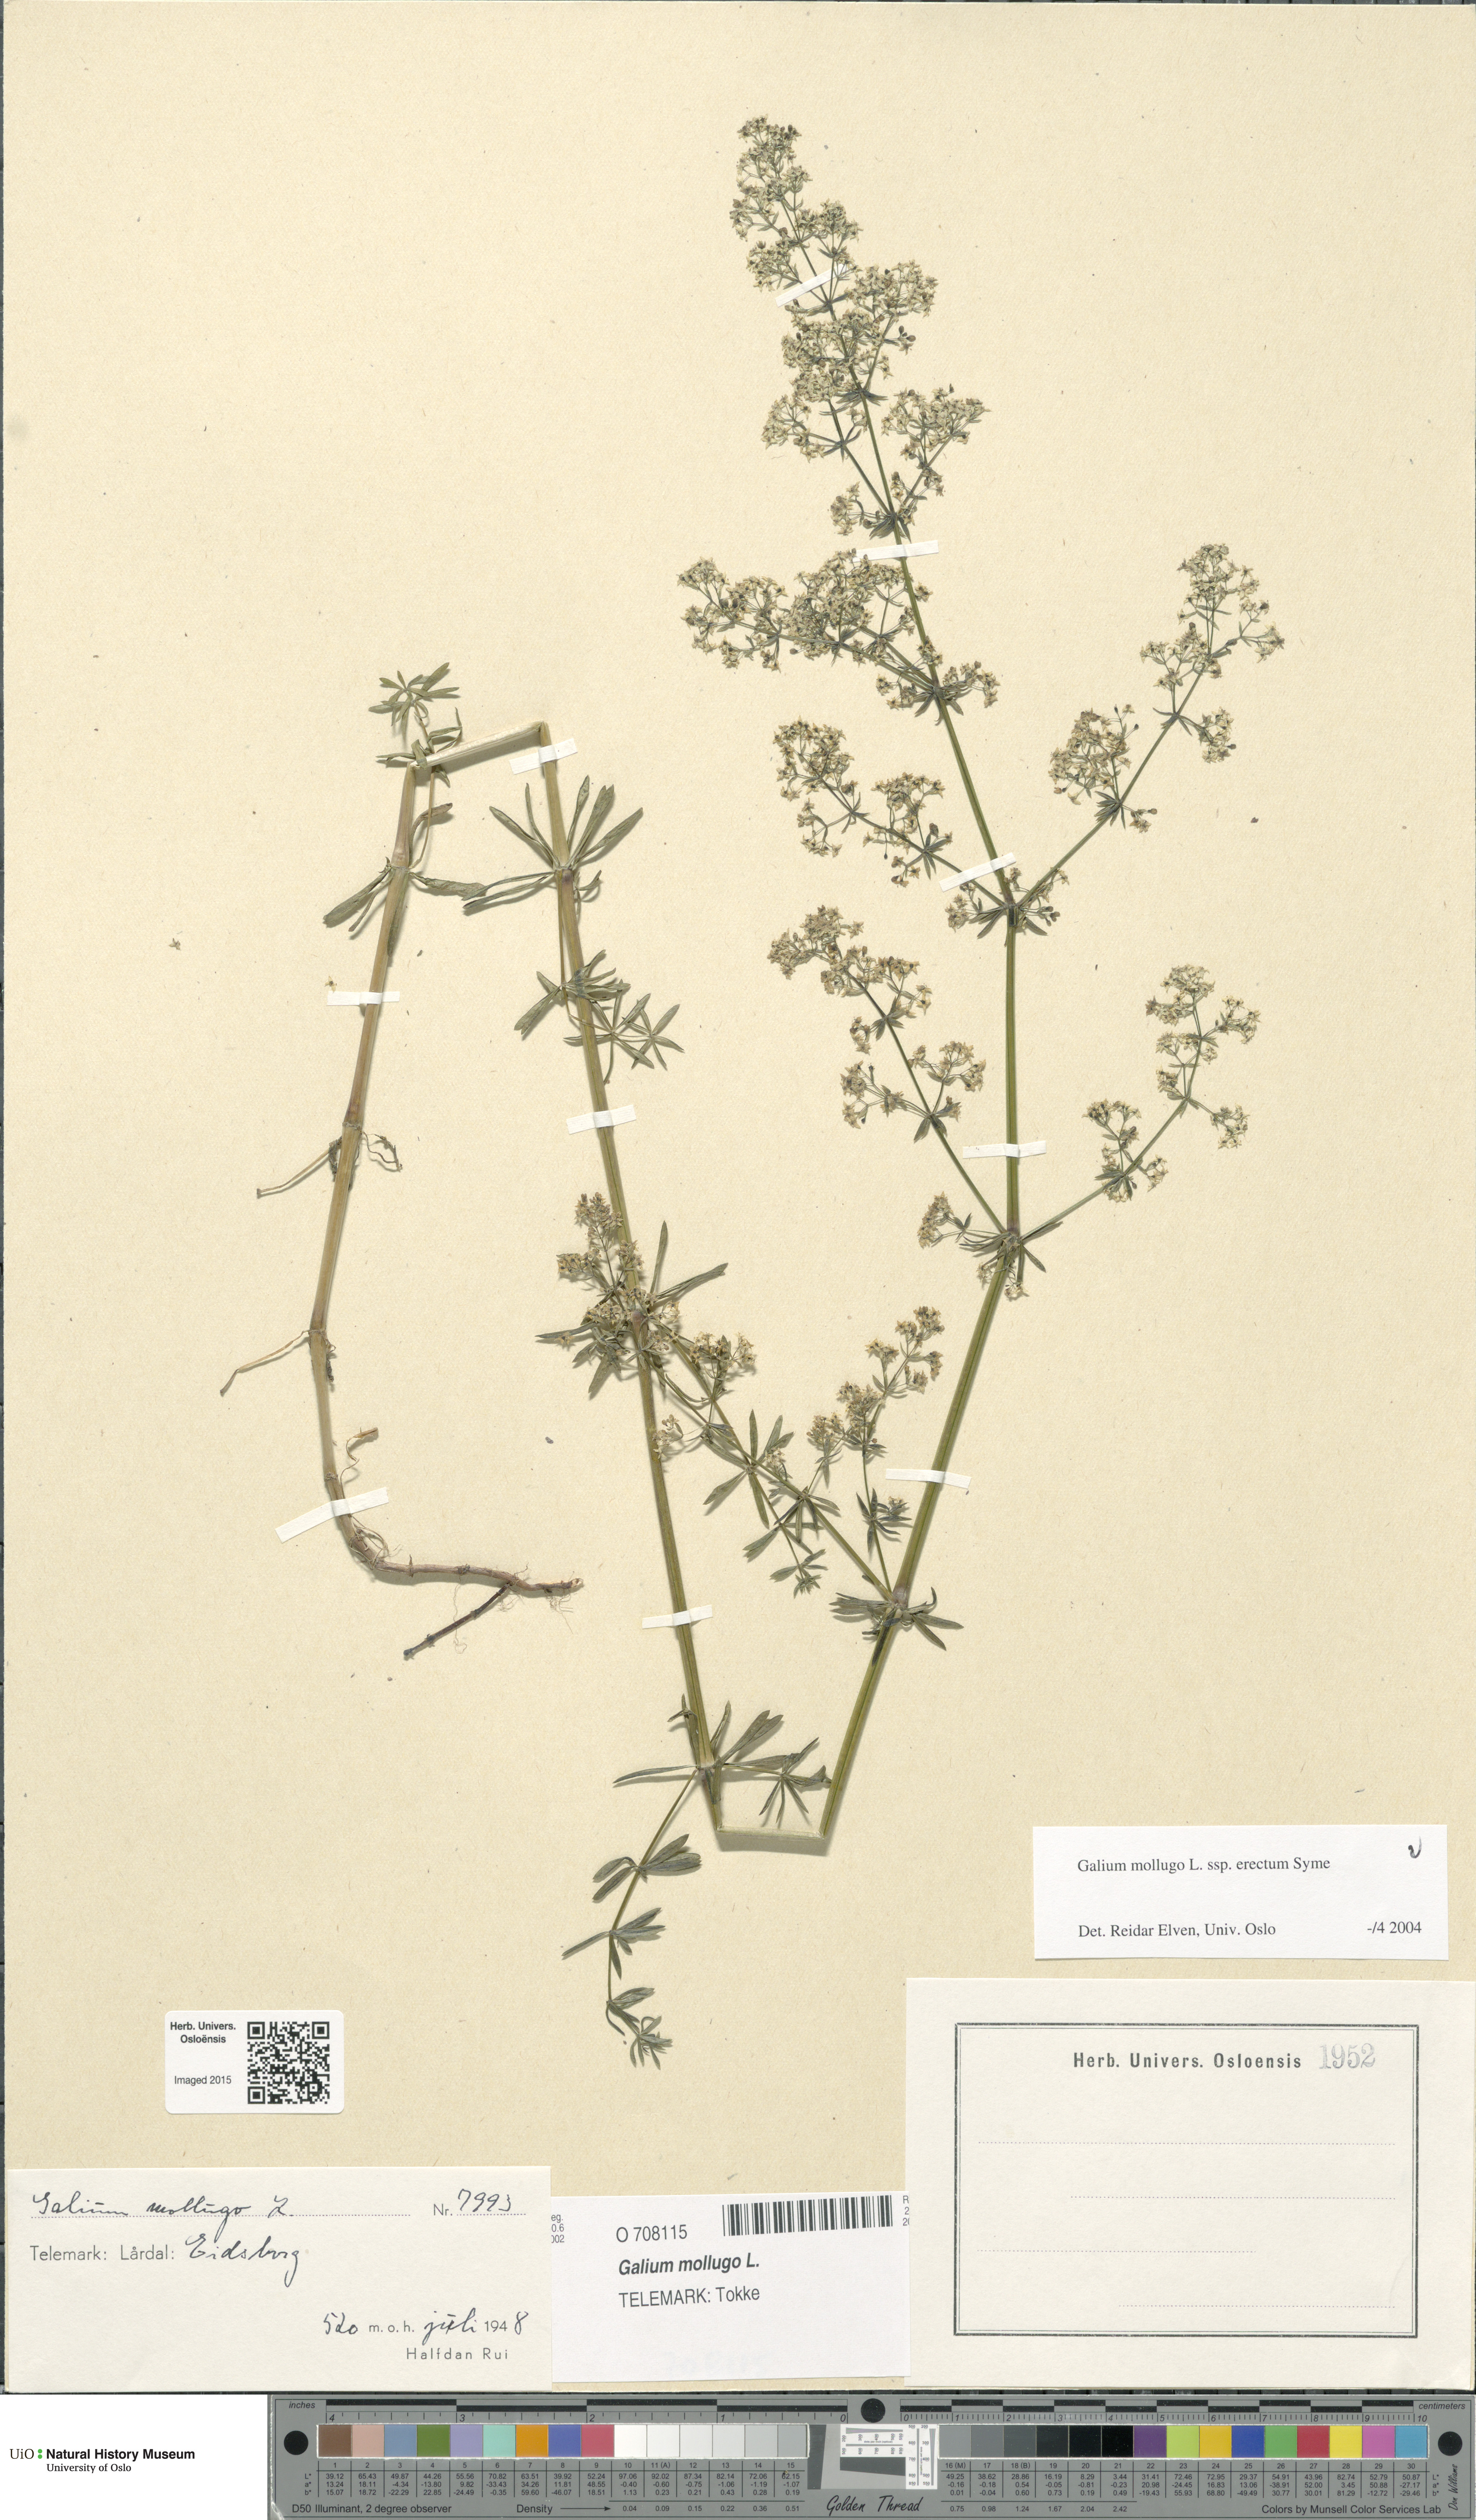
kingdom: Plantae
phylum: Tracheophyta
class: Magnoliopsida
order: Gentianales
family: Rubiaceae
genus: Galium
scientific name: Galium album
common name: White bedstraw
